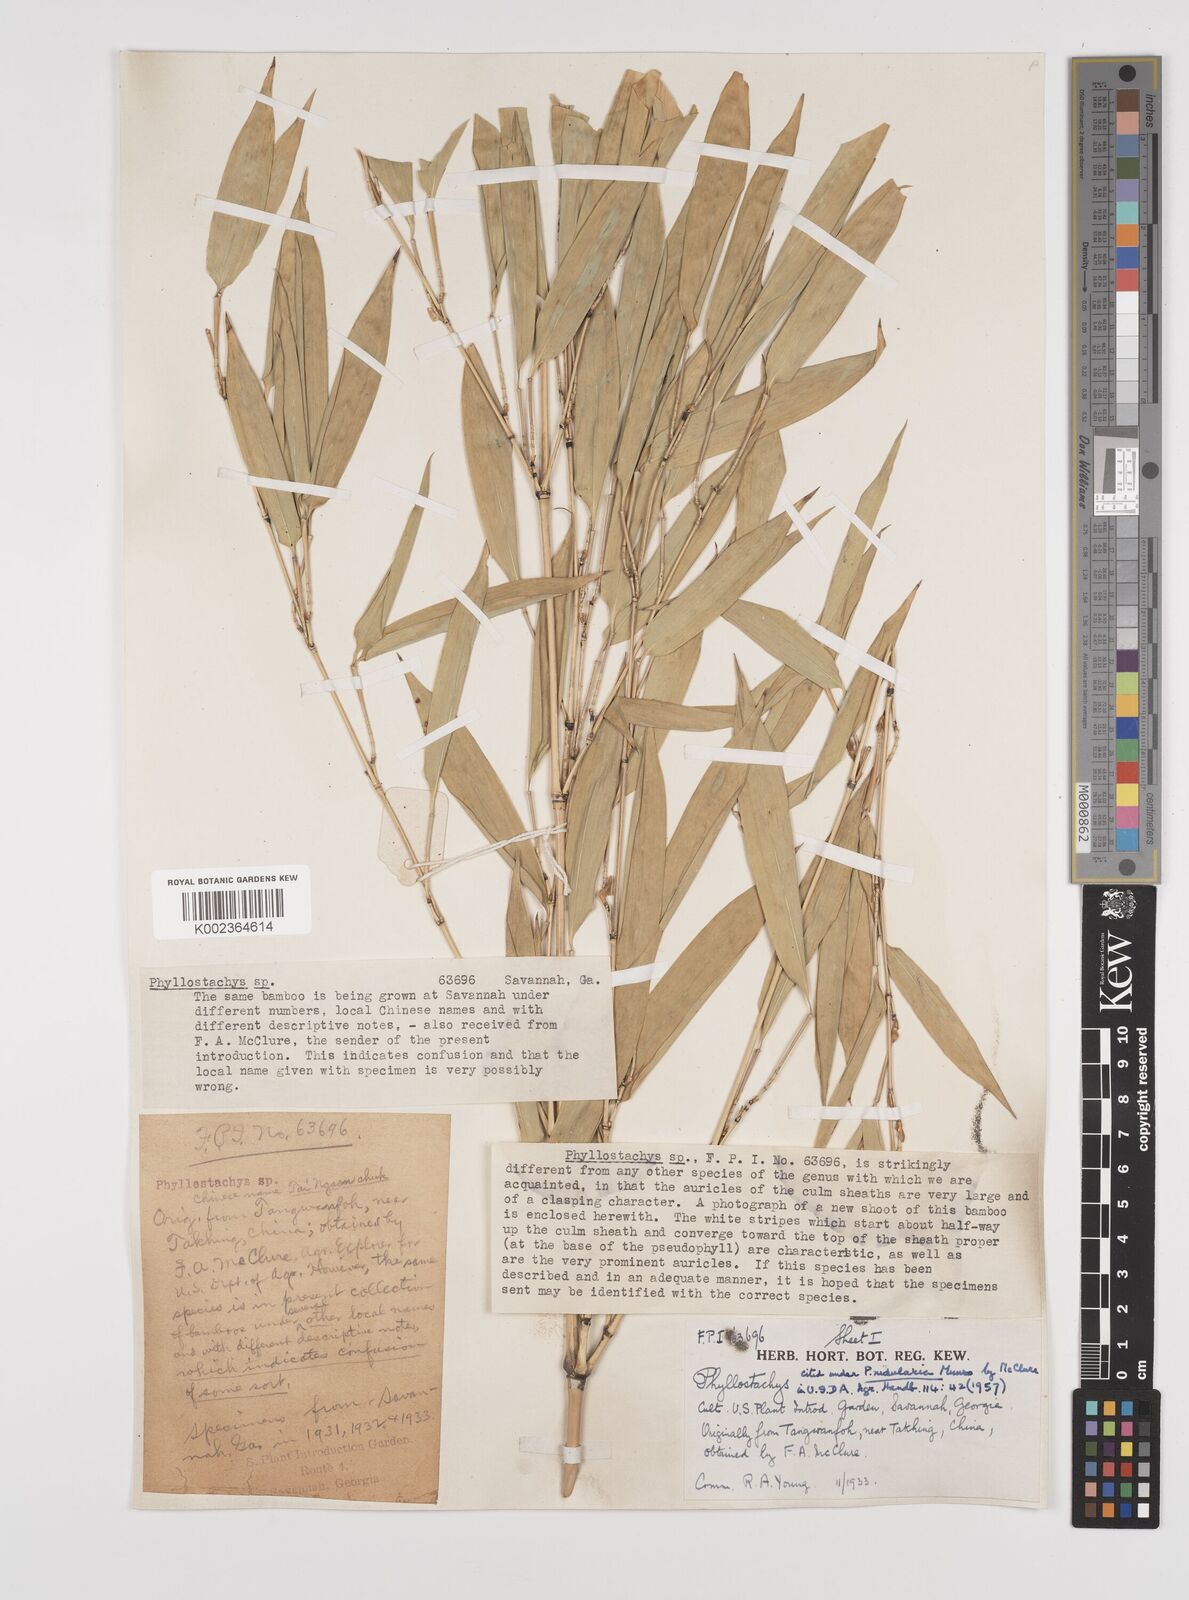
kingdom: Plantae
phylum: Tracheophyta
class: Liliopsida
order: Poales
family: Poaceae
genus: Phyllostachys
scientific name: Phyllostachys nidularia
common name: Broom bamboo
